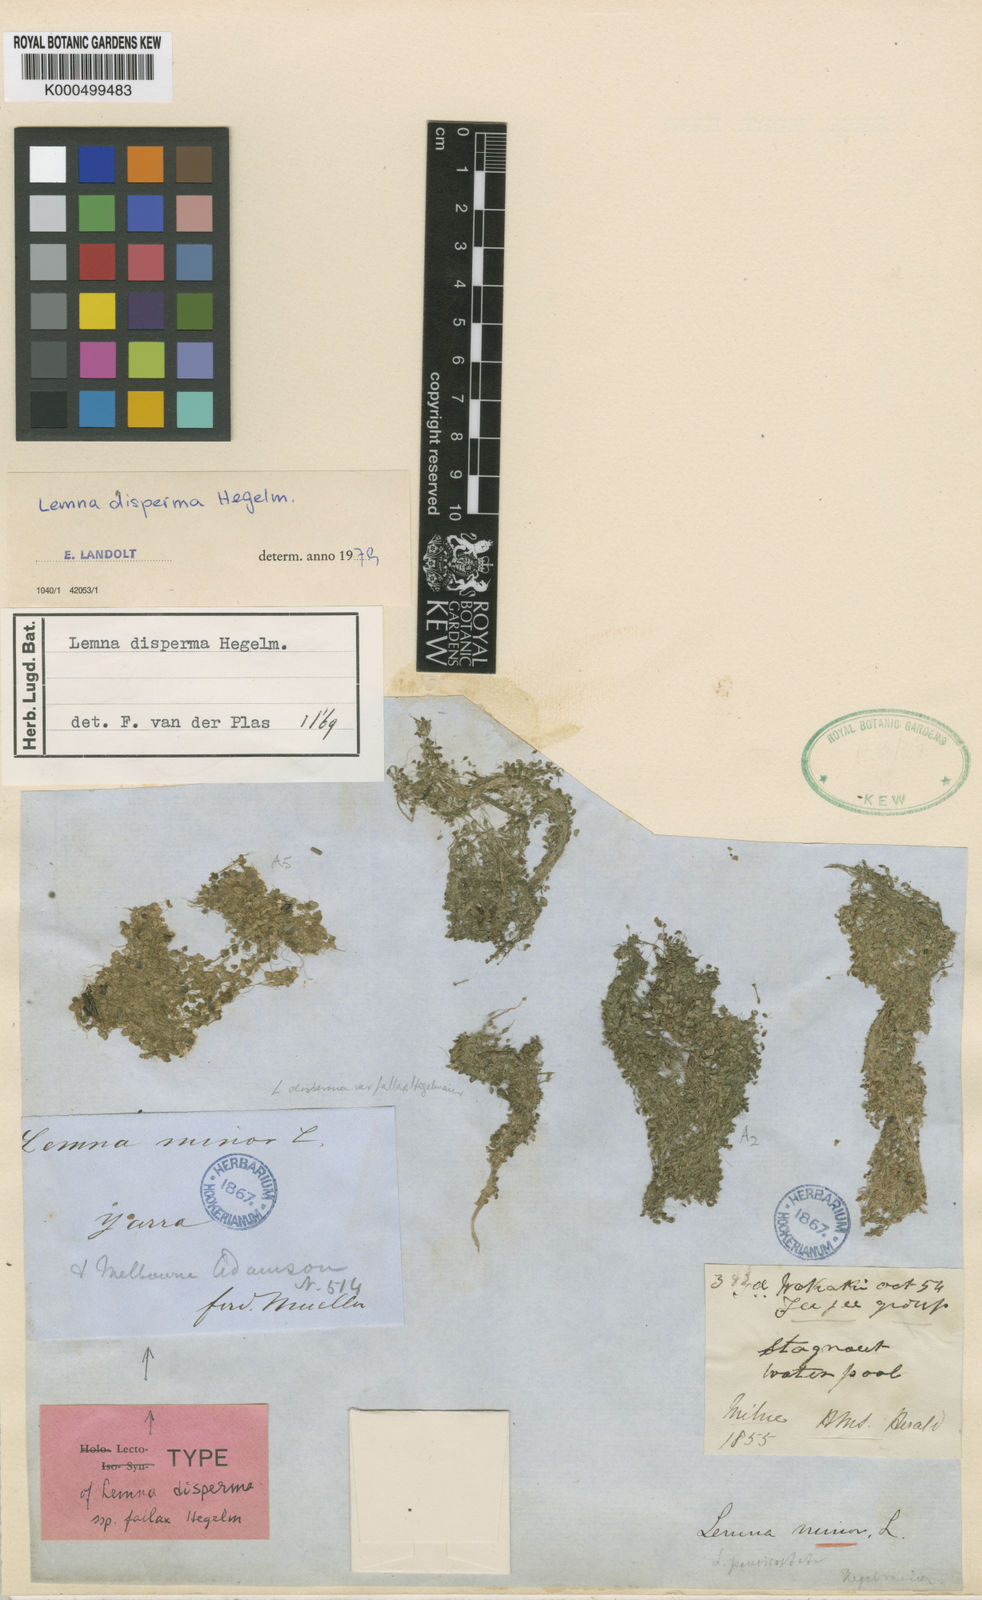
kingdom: Plantae
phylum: Tracheophyta
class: Liliopsida
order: Alismatales
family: Araceae
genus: Lemna
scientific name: Lemna disperma
